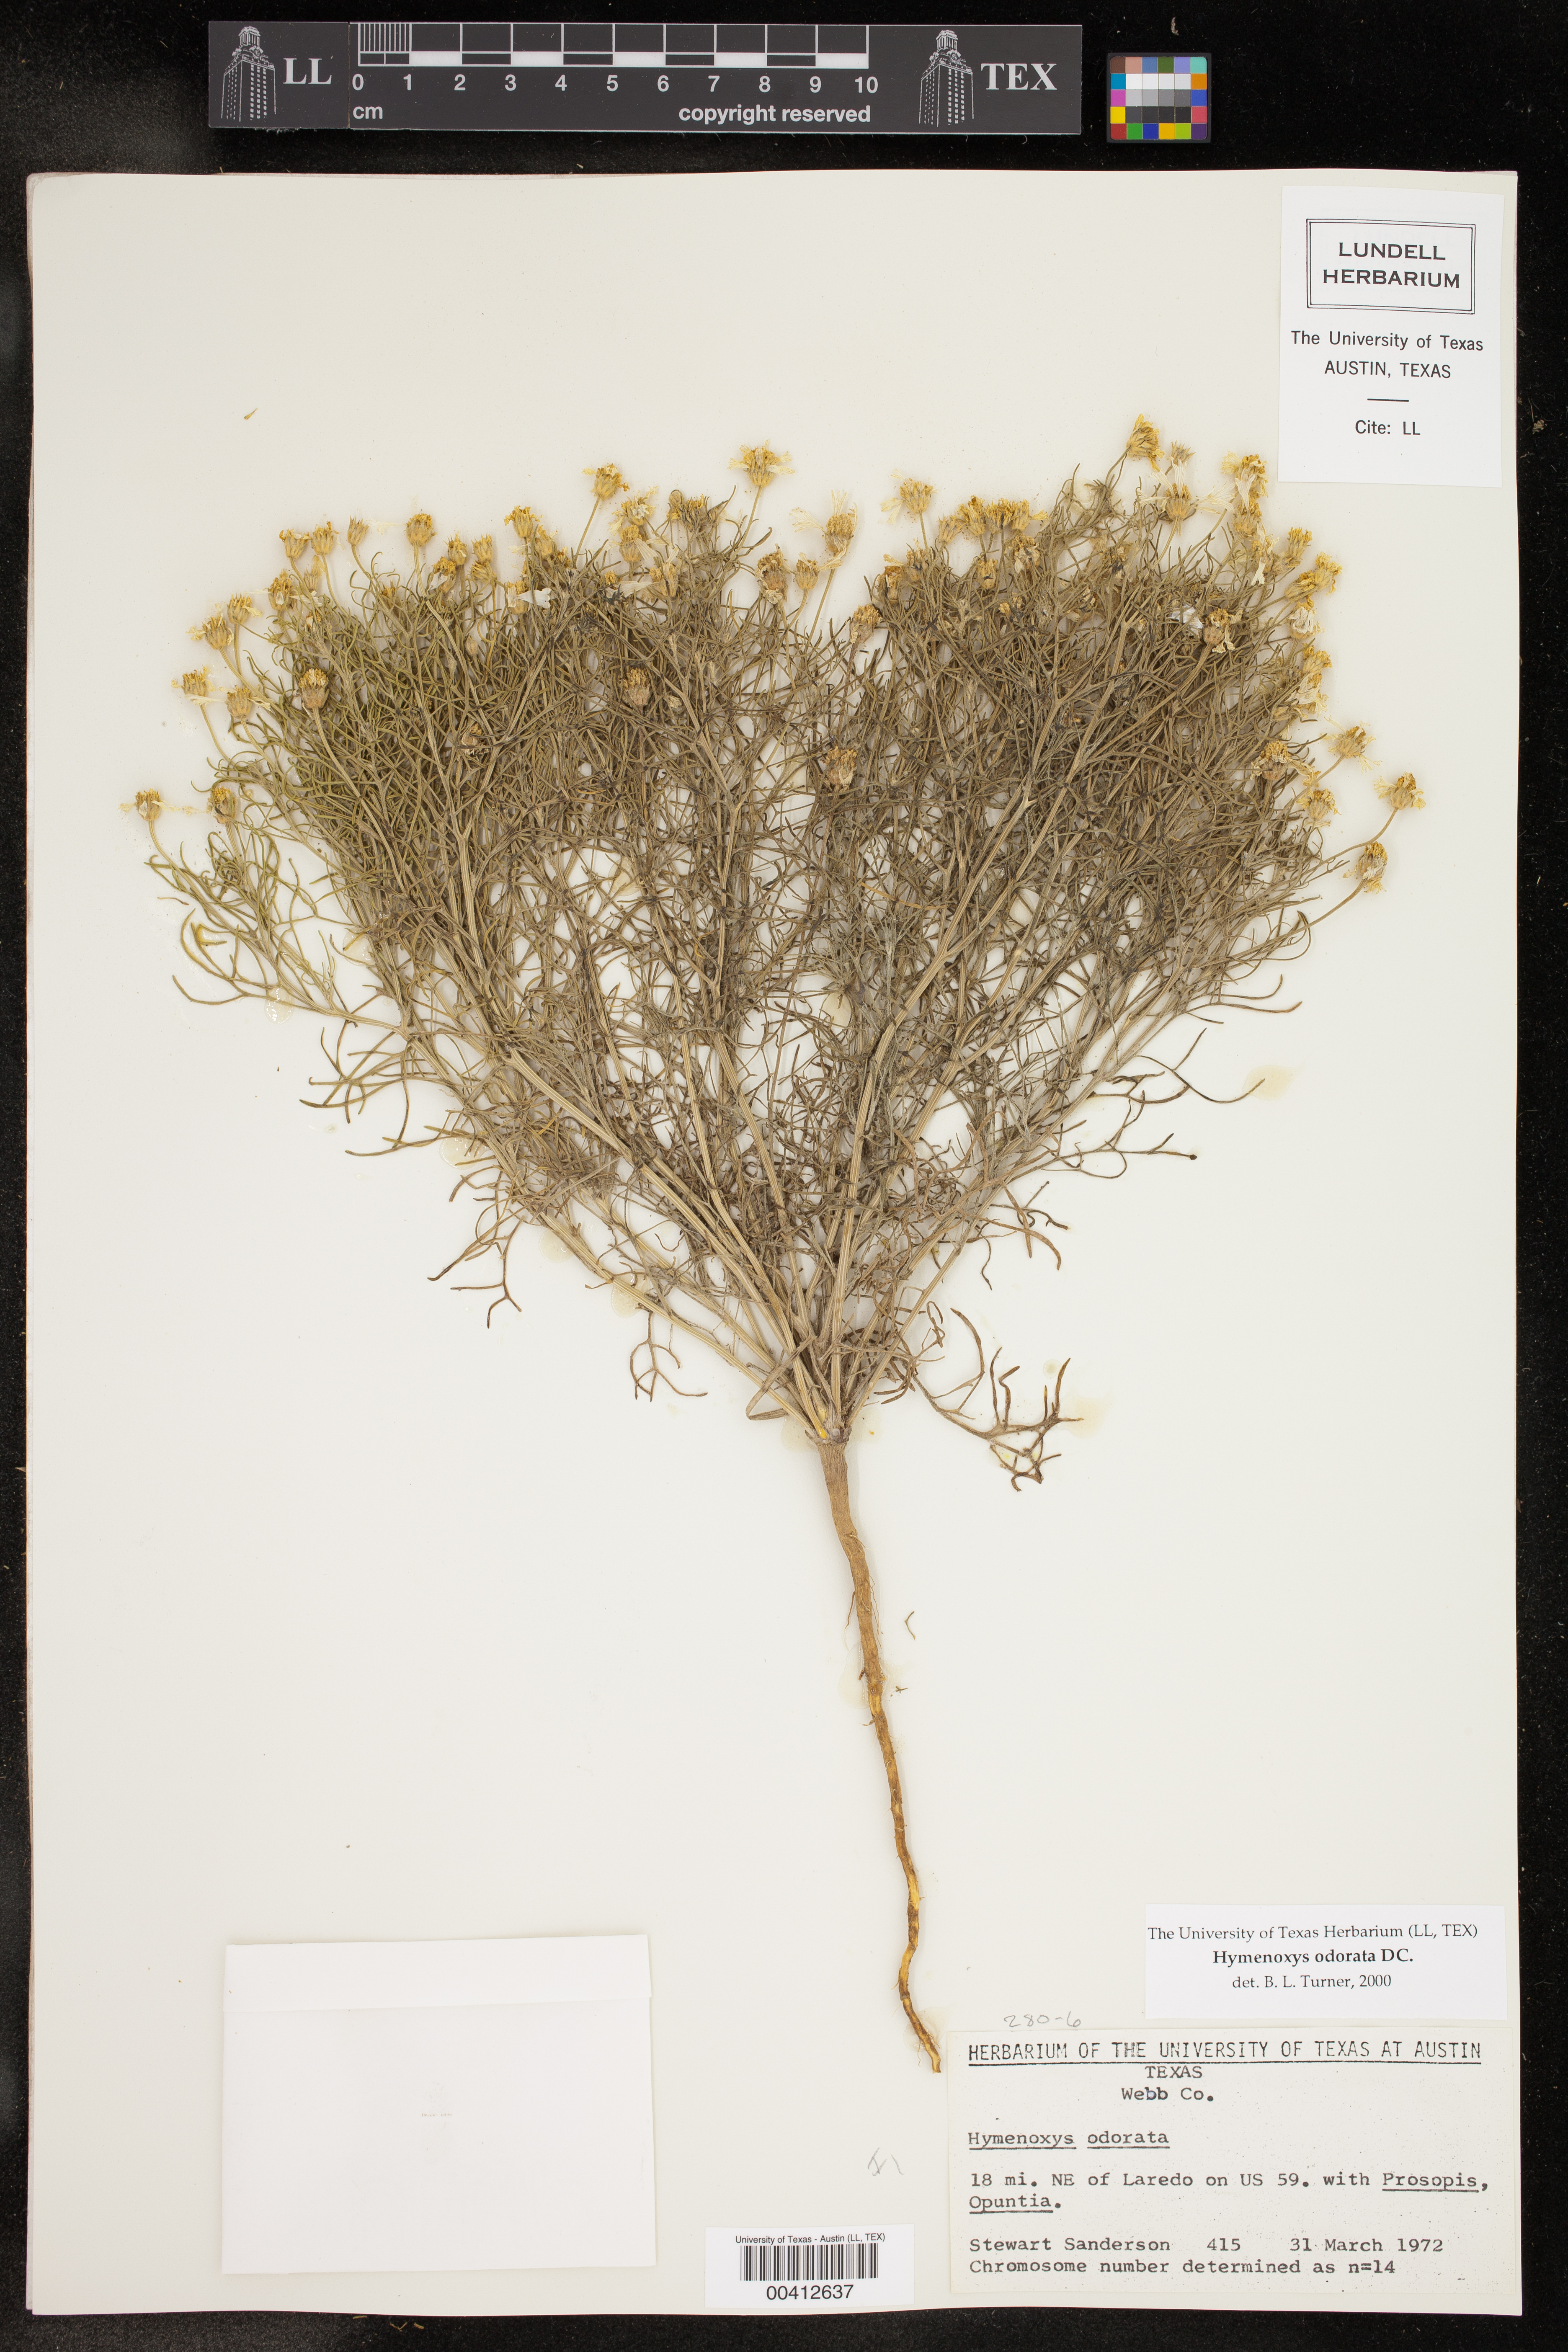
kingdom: Plantae
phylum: Tracheophyta
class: Magnoliopsida
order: Asterales
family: Asteraceae
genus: Hymenoxys
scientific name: Hymenoxys odorata
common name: Bitter rubberweed
